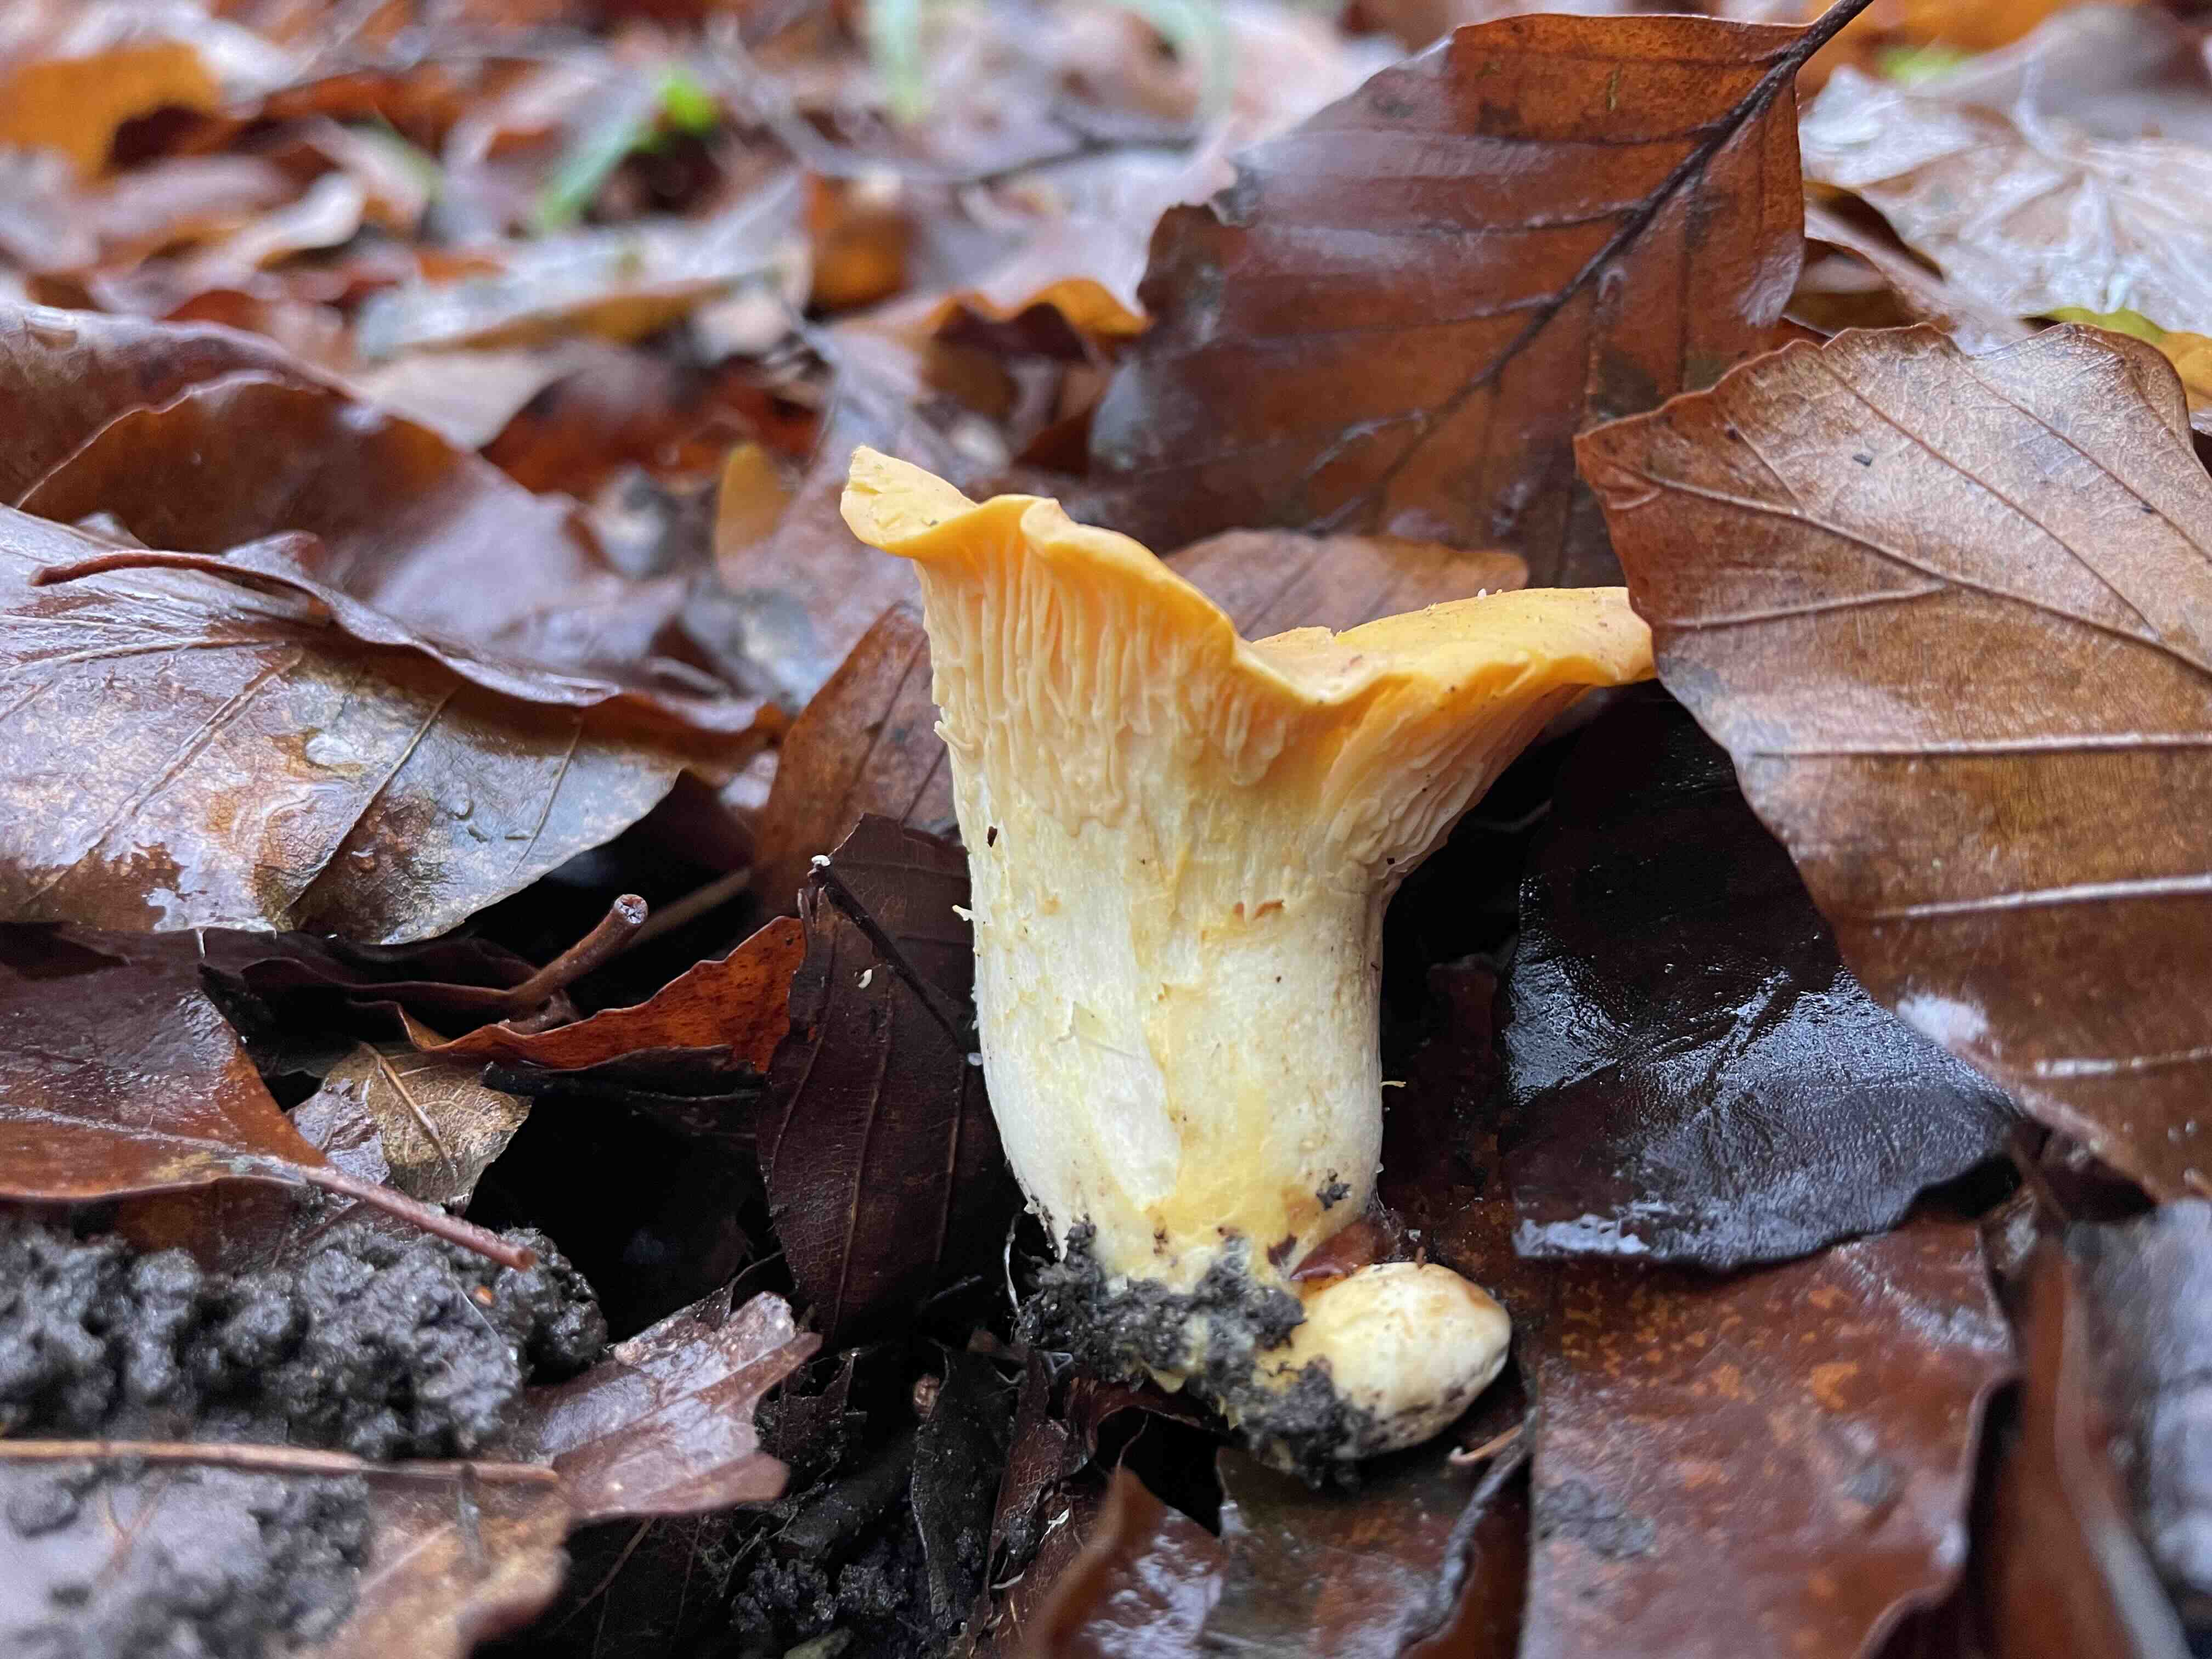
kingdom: Fungi
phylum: Basidiomycota
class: Agaricomycetes
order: Cantharellales
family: Hydnaceae
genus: Cantharellus
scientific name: Cantharellus pallens
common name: bleg kantarel
